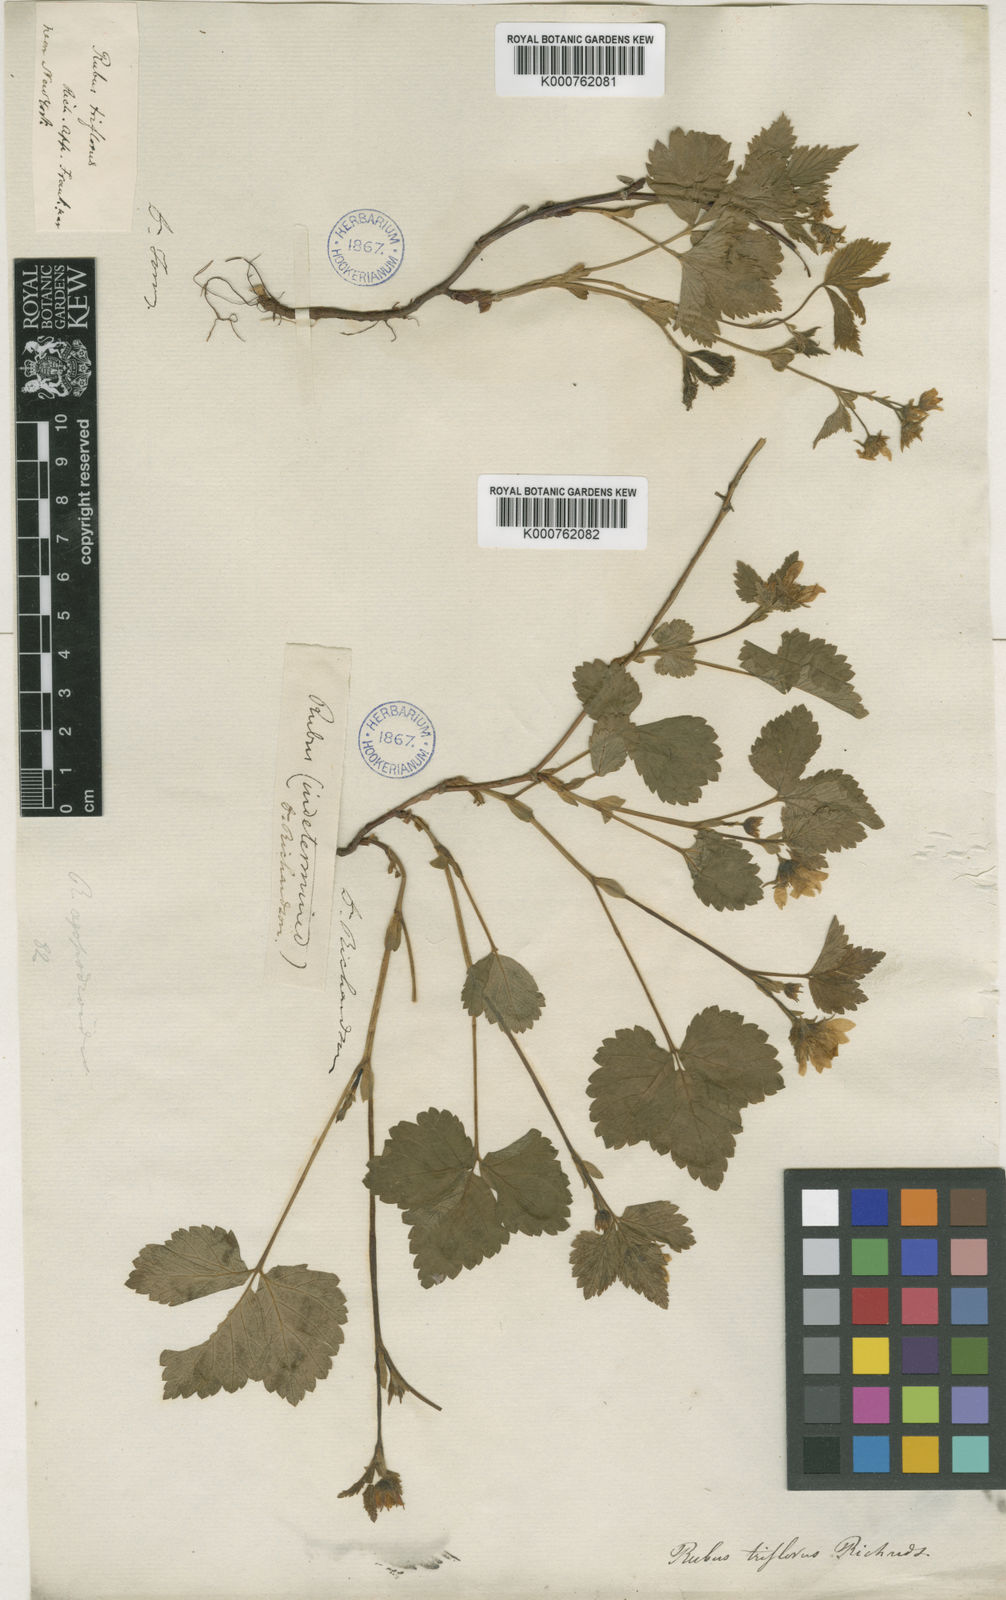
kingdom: Plantae
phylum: Tracheophyta
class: Magnoliopsida
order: Rosales
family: Rosaceae
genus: Rubus
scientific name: Rubus
